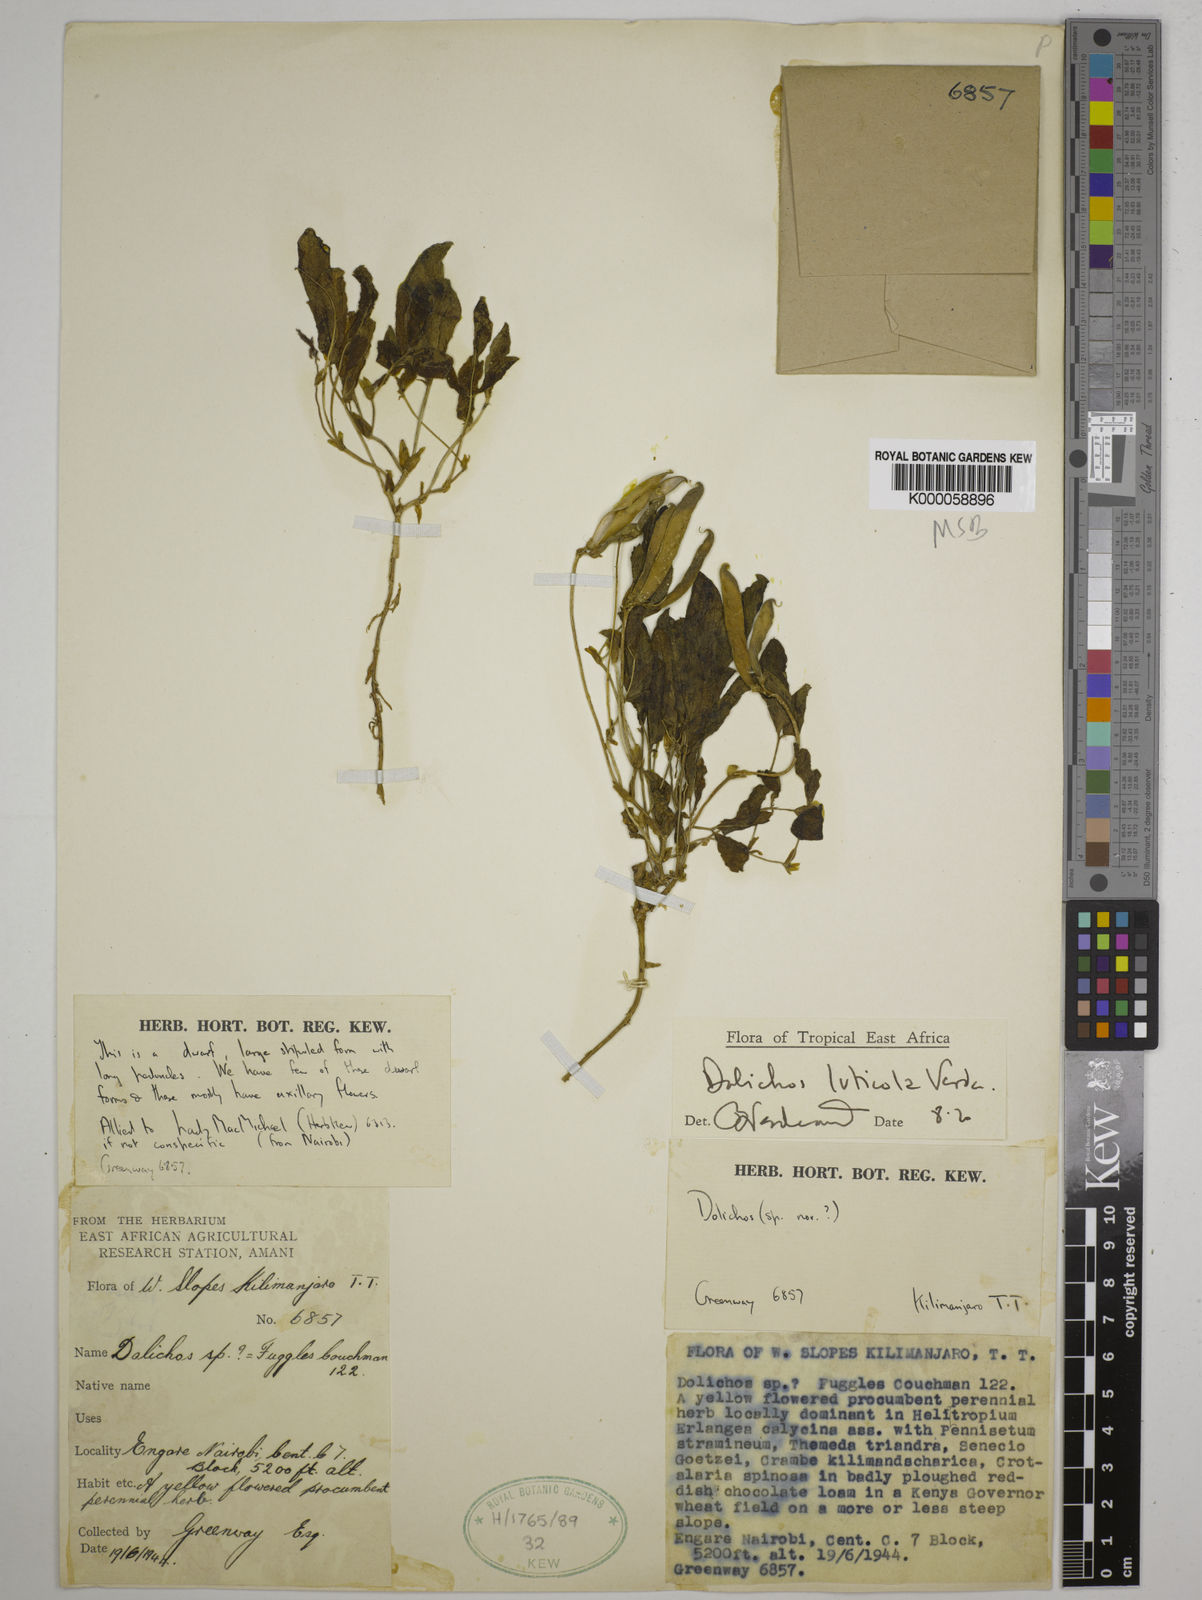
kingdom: Plantae
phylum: Tracheophyta
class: Magnoliopsida
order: Fabales
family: Fabaceae
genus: Dolichos
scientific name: Dolichos luticola
